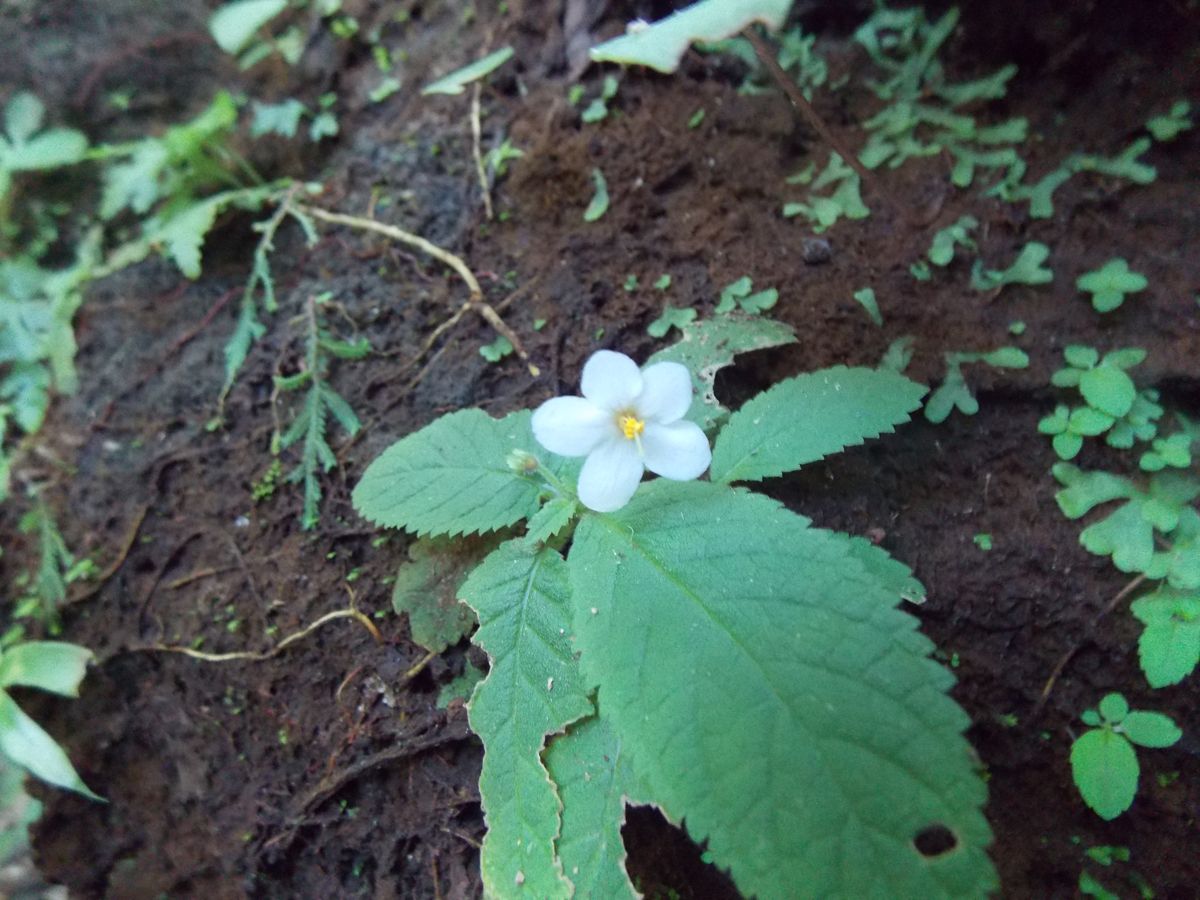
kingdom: Plantae
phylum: Tracheophyta
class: Magnoliopsida
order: Lamiales
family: Gesneriaceae
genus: Amalophyllon
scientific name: Amalophyllon repens
